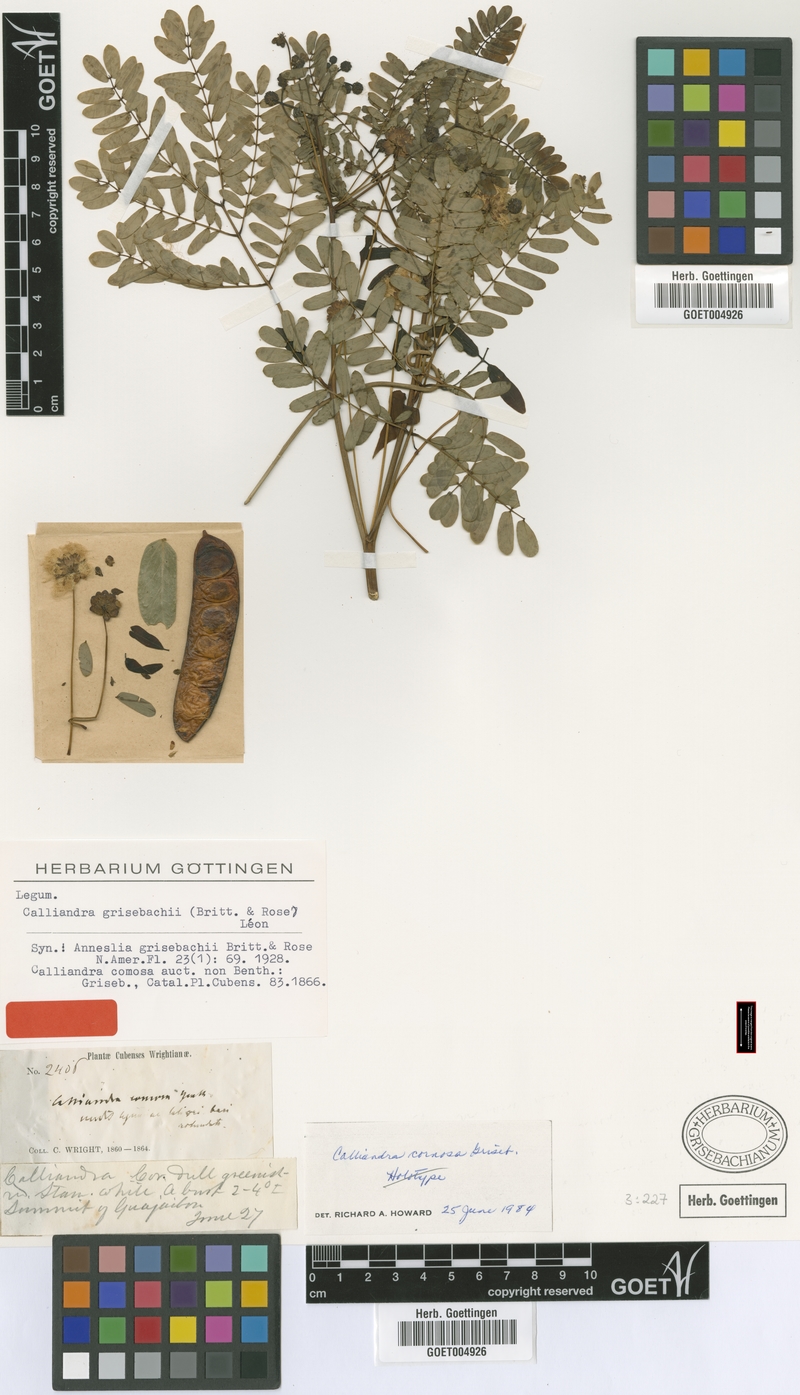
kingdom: Plantae
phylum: Tracheophyta
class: Magnoliopsida
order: Fabales
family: Fabaceae
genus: Zapoteca
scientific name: Zapoteca gracilis
